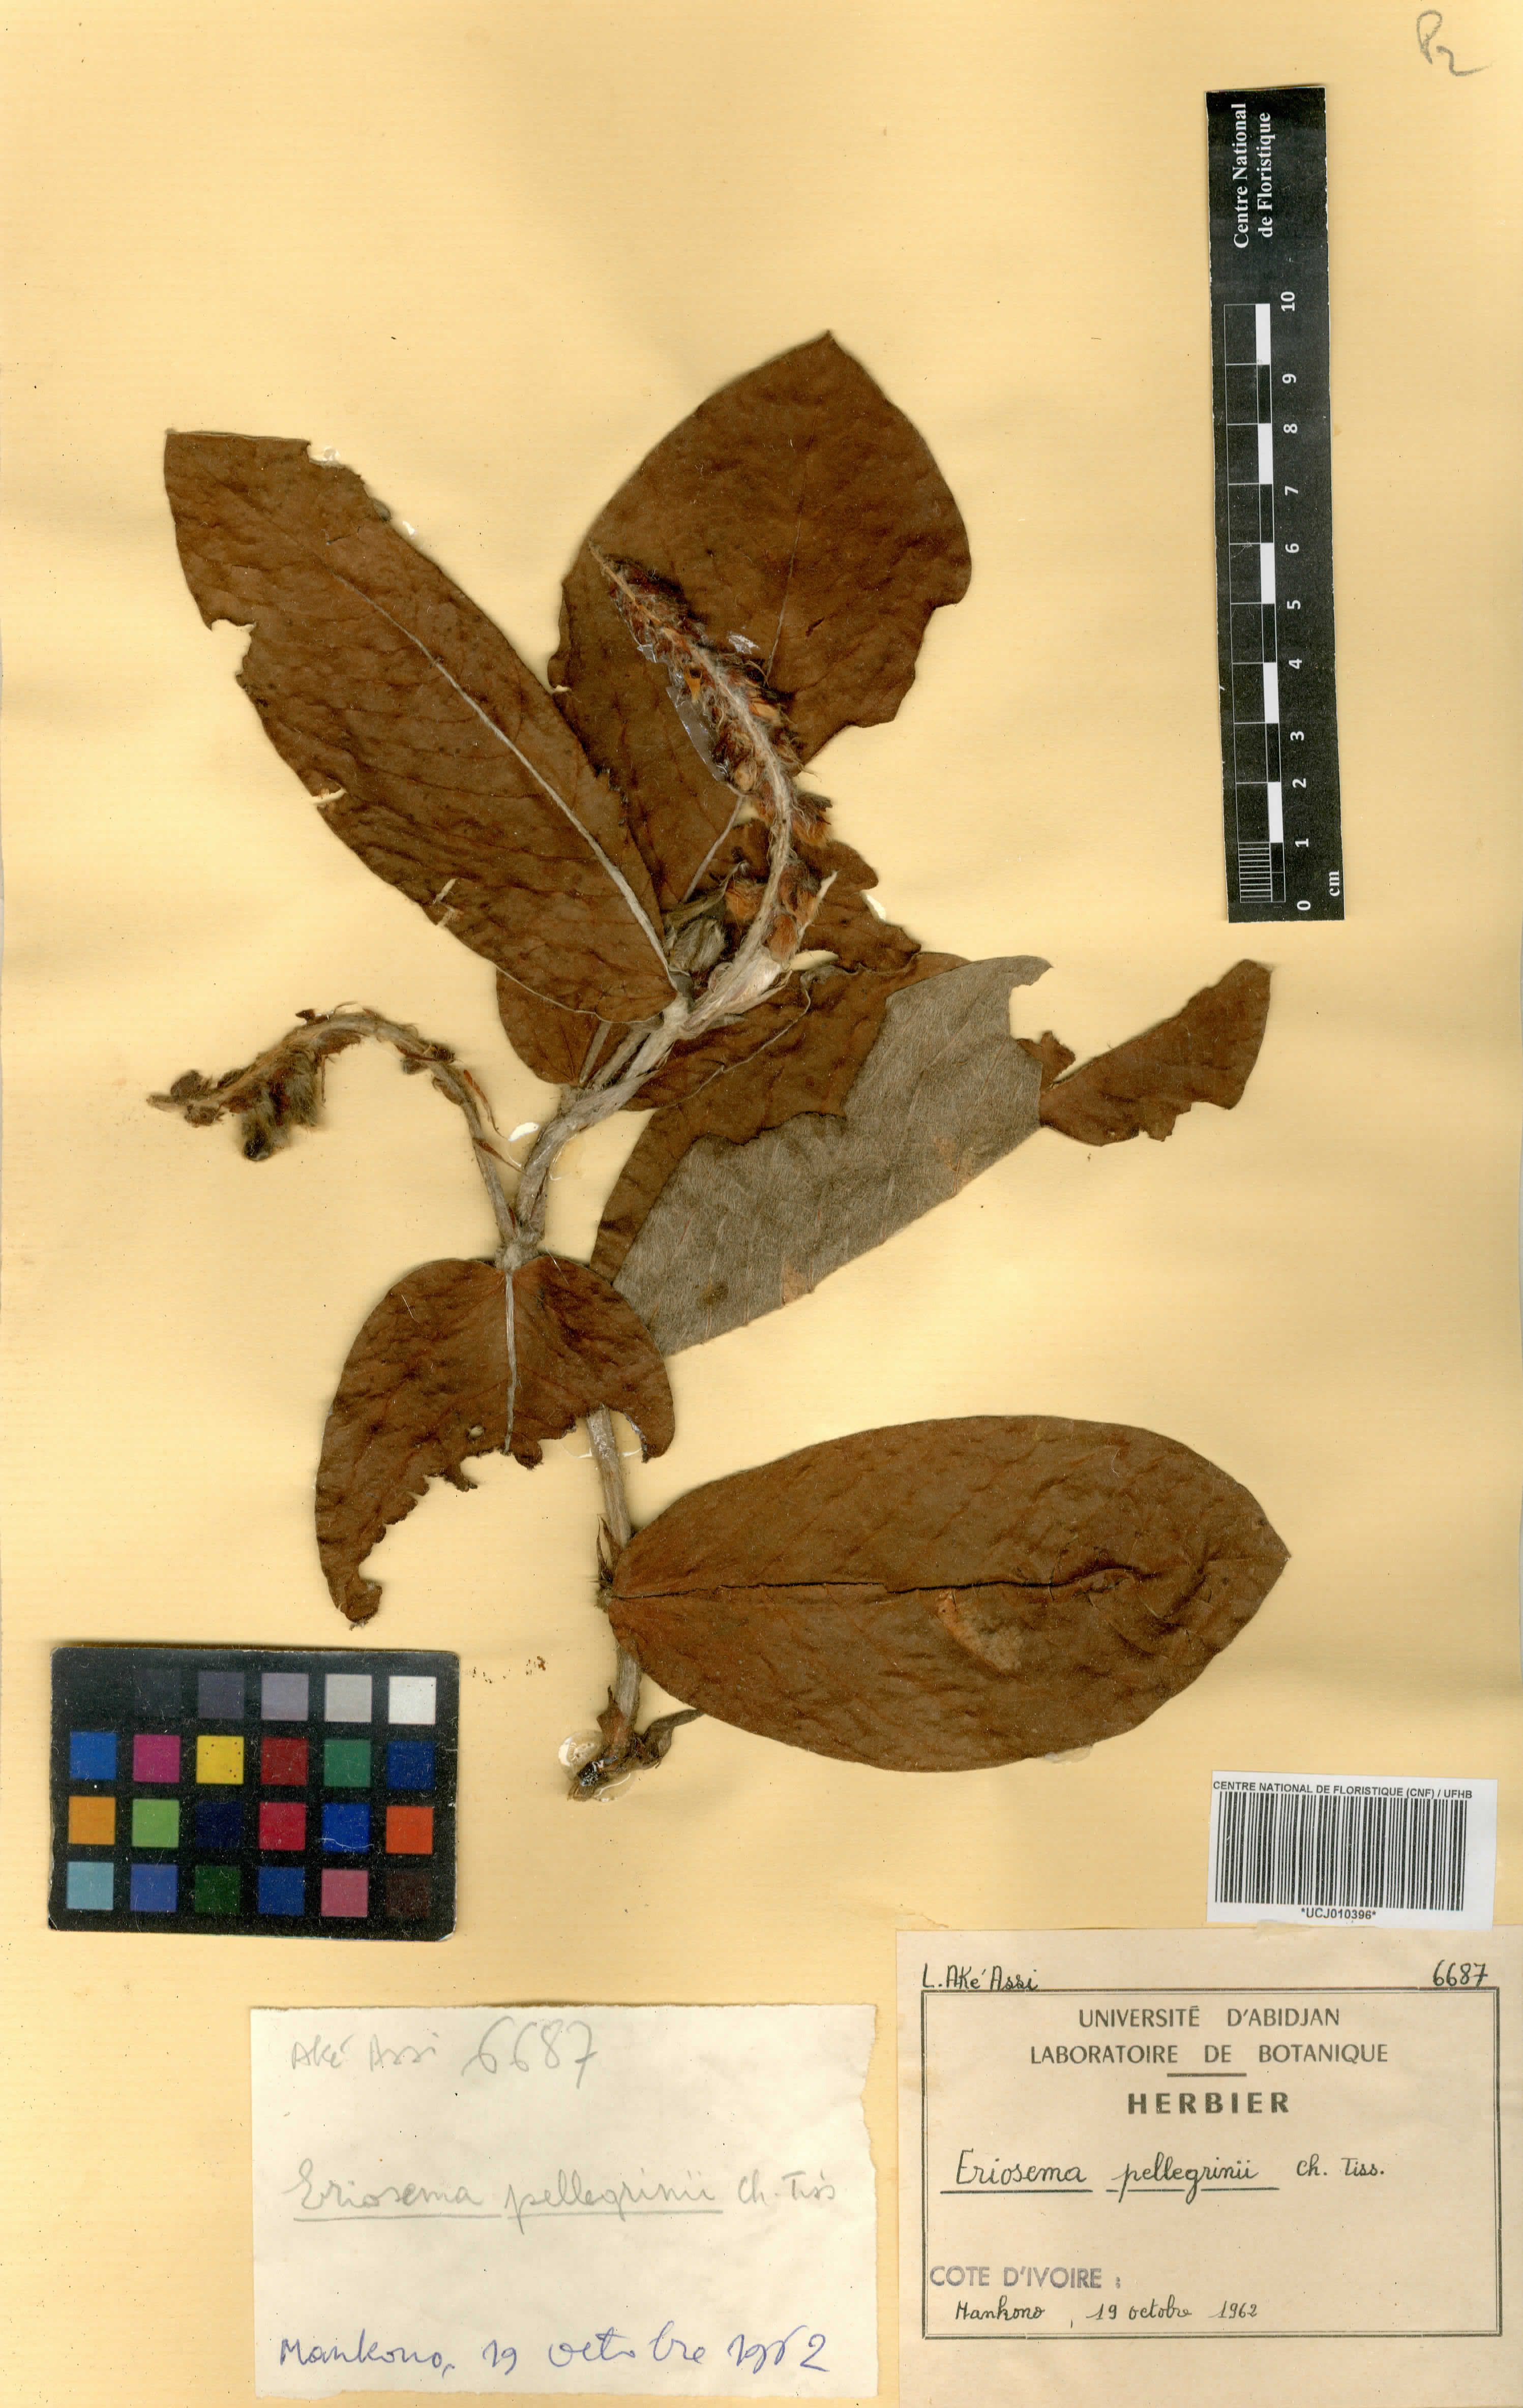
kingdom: Plantae
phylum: Tracheophyta
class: Magnoliopsida
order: Fabales
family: Fabaceae
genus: Eriosema
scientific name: Eriosema pellegrinii
